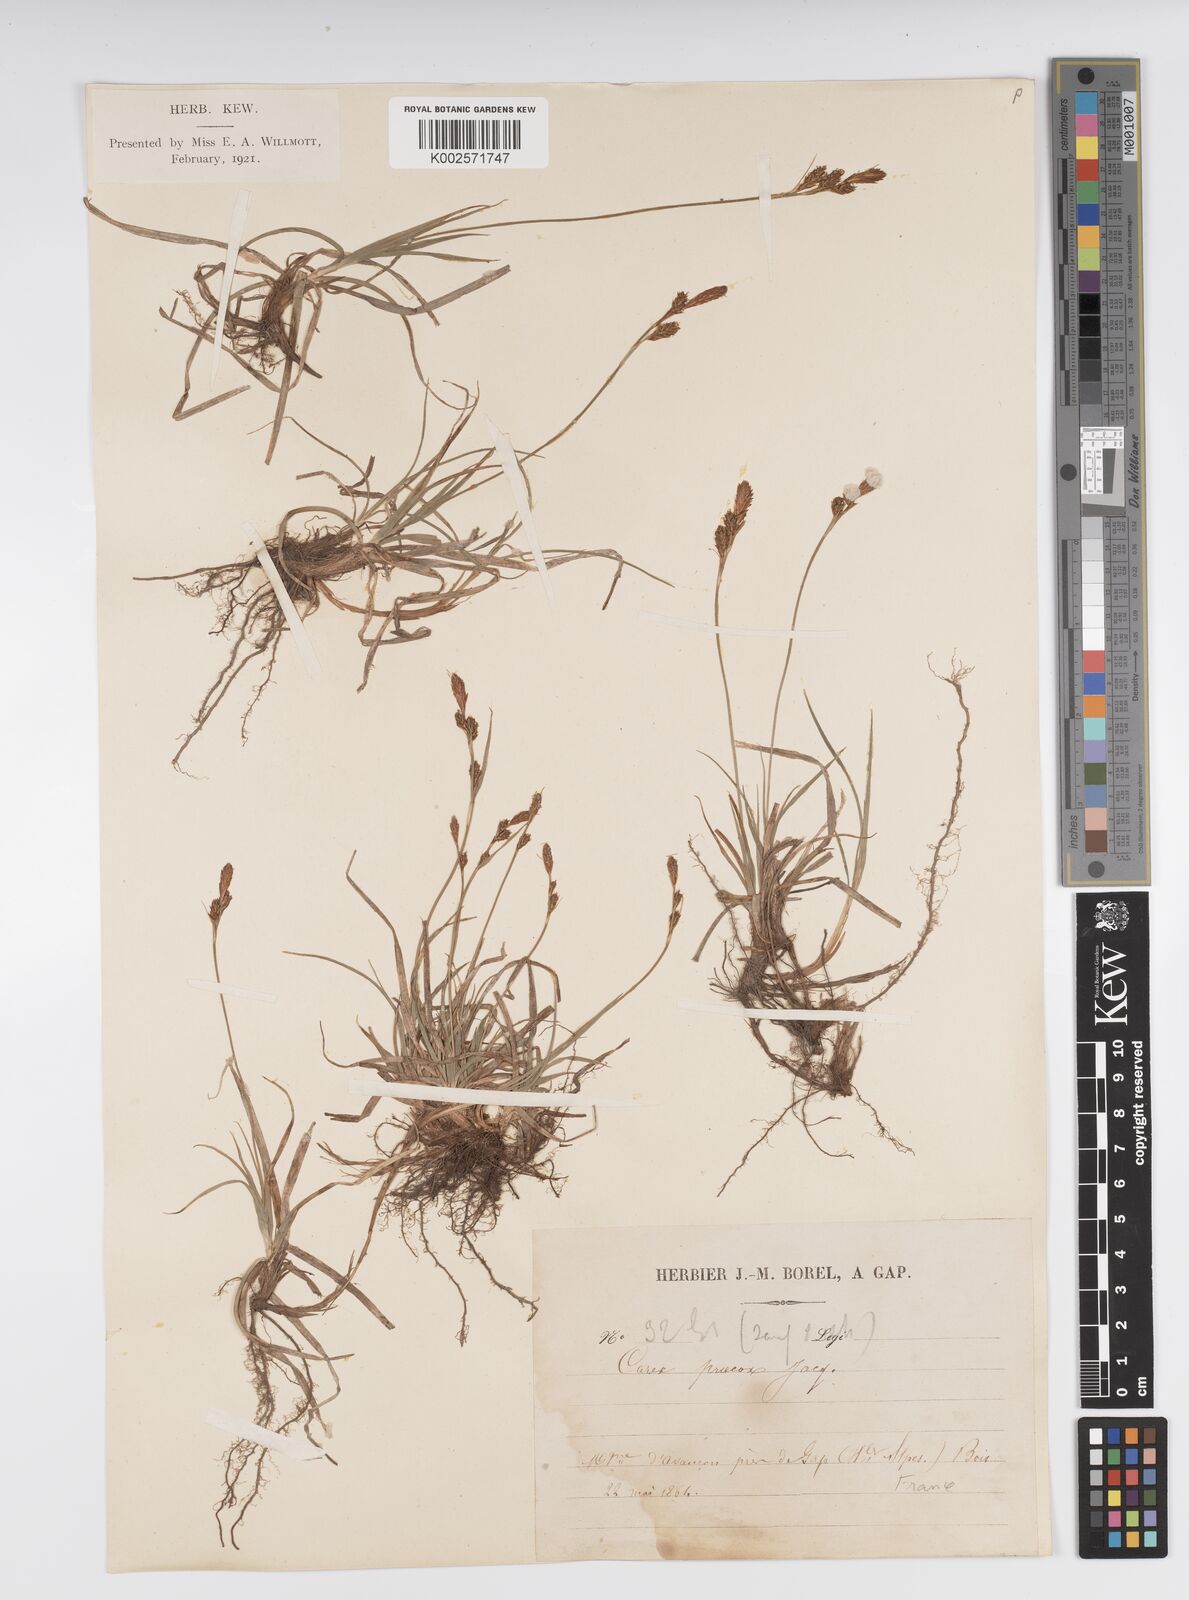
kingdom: Plantae
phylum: Tracheophyta
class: Liliopsida
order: Poales
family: Cyperaceae
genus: Carex
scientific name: Carex caryophyllea
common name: Spring sedge
